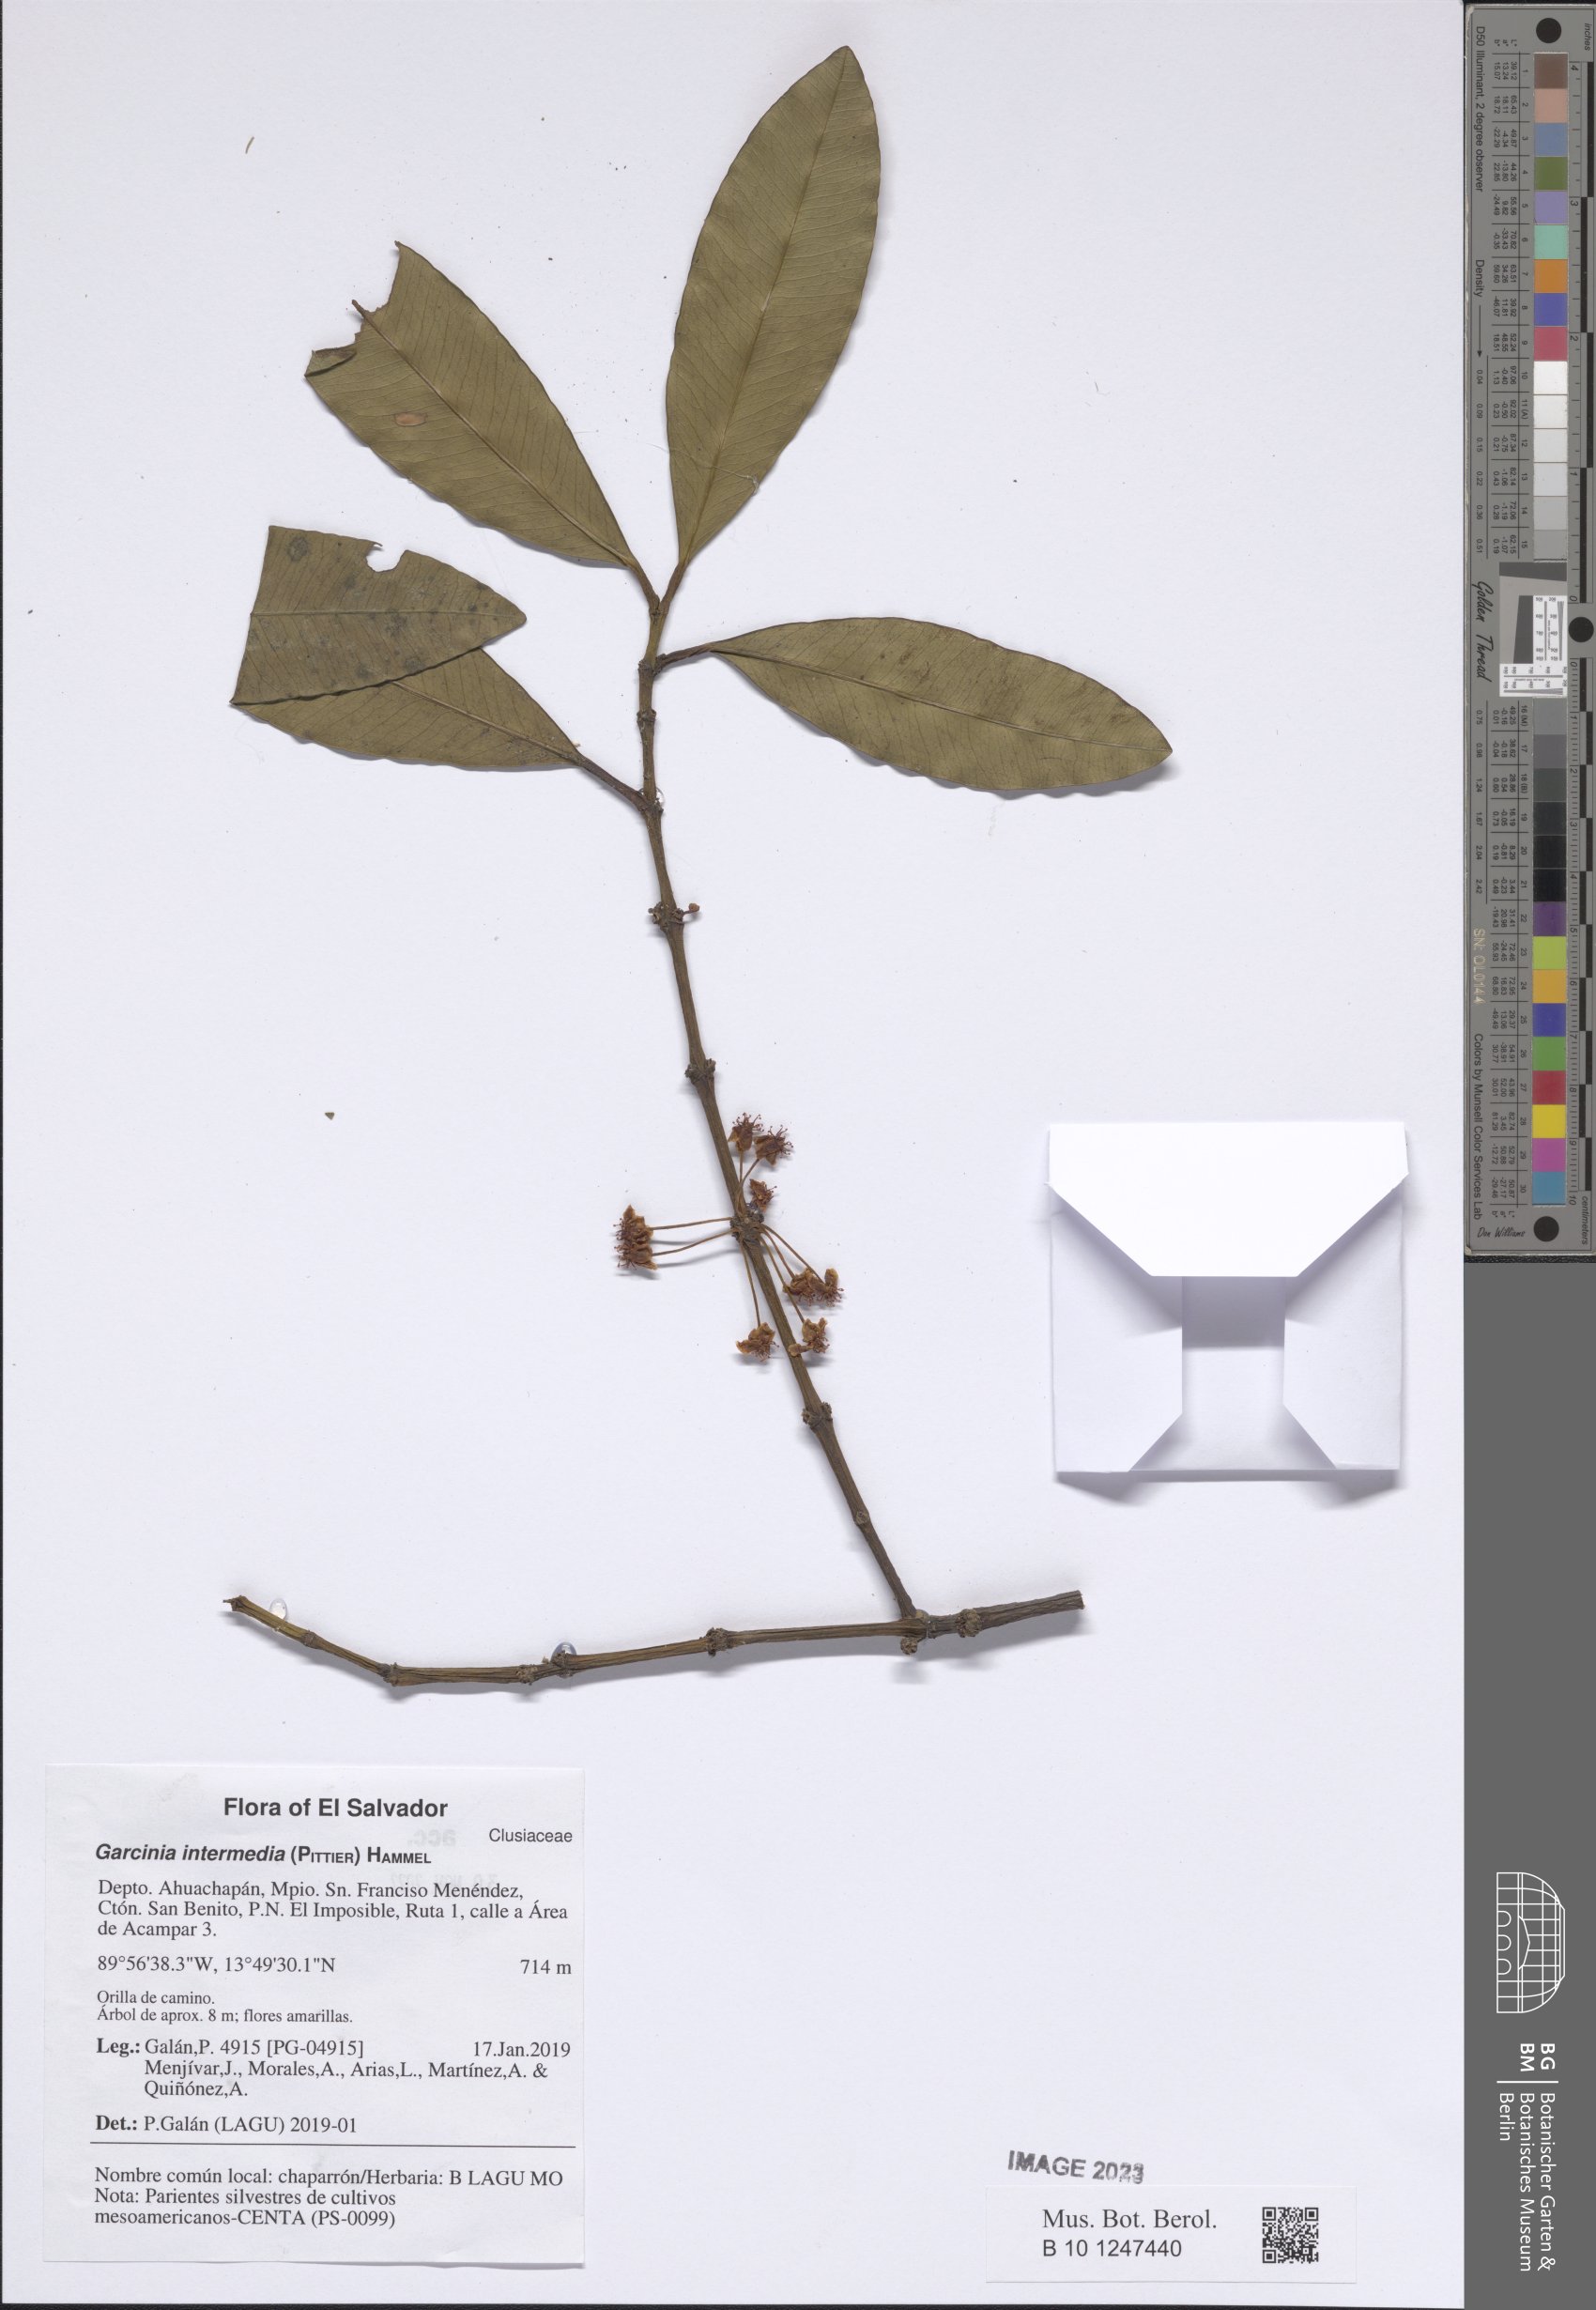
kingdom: Plantae
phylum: Tracheophyta
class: Magnoliopsida
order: Malpighiales
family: Clusiaceae
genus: Garcinia
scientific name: Garcinia intermedia
